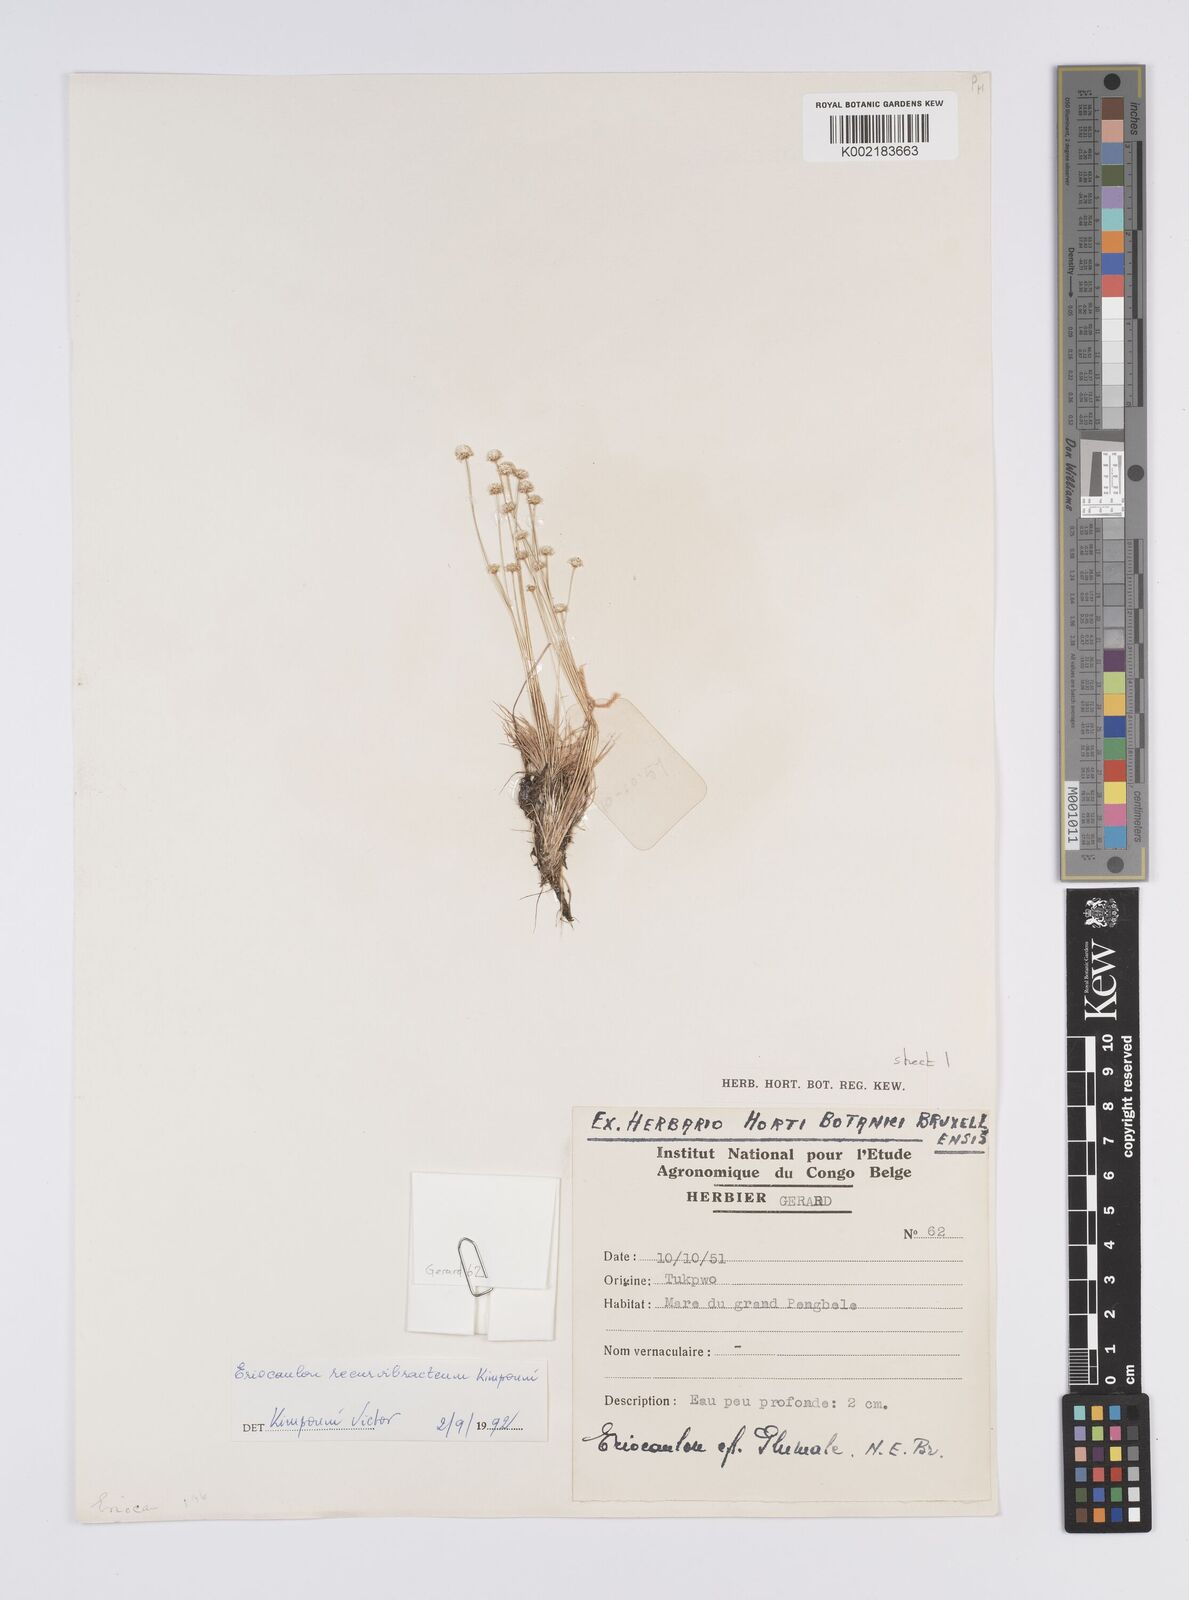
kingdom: Plantae
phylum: Tracheophyta
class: Liliopsida
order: Poales
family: Eriocaulaceae
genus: Eriocaulon
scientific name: Eriocaulon recurvibracteum
